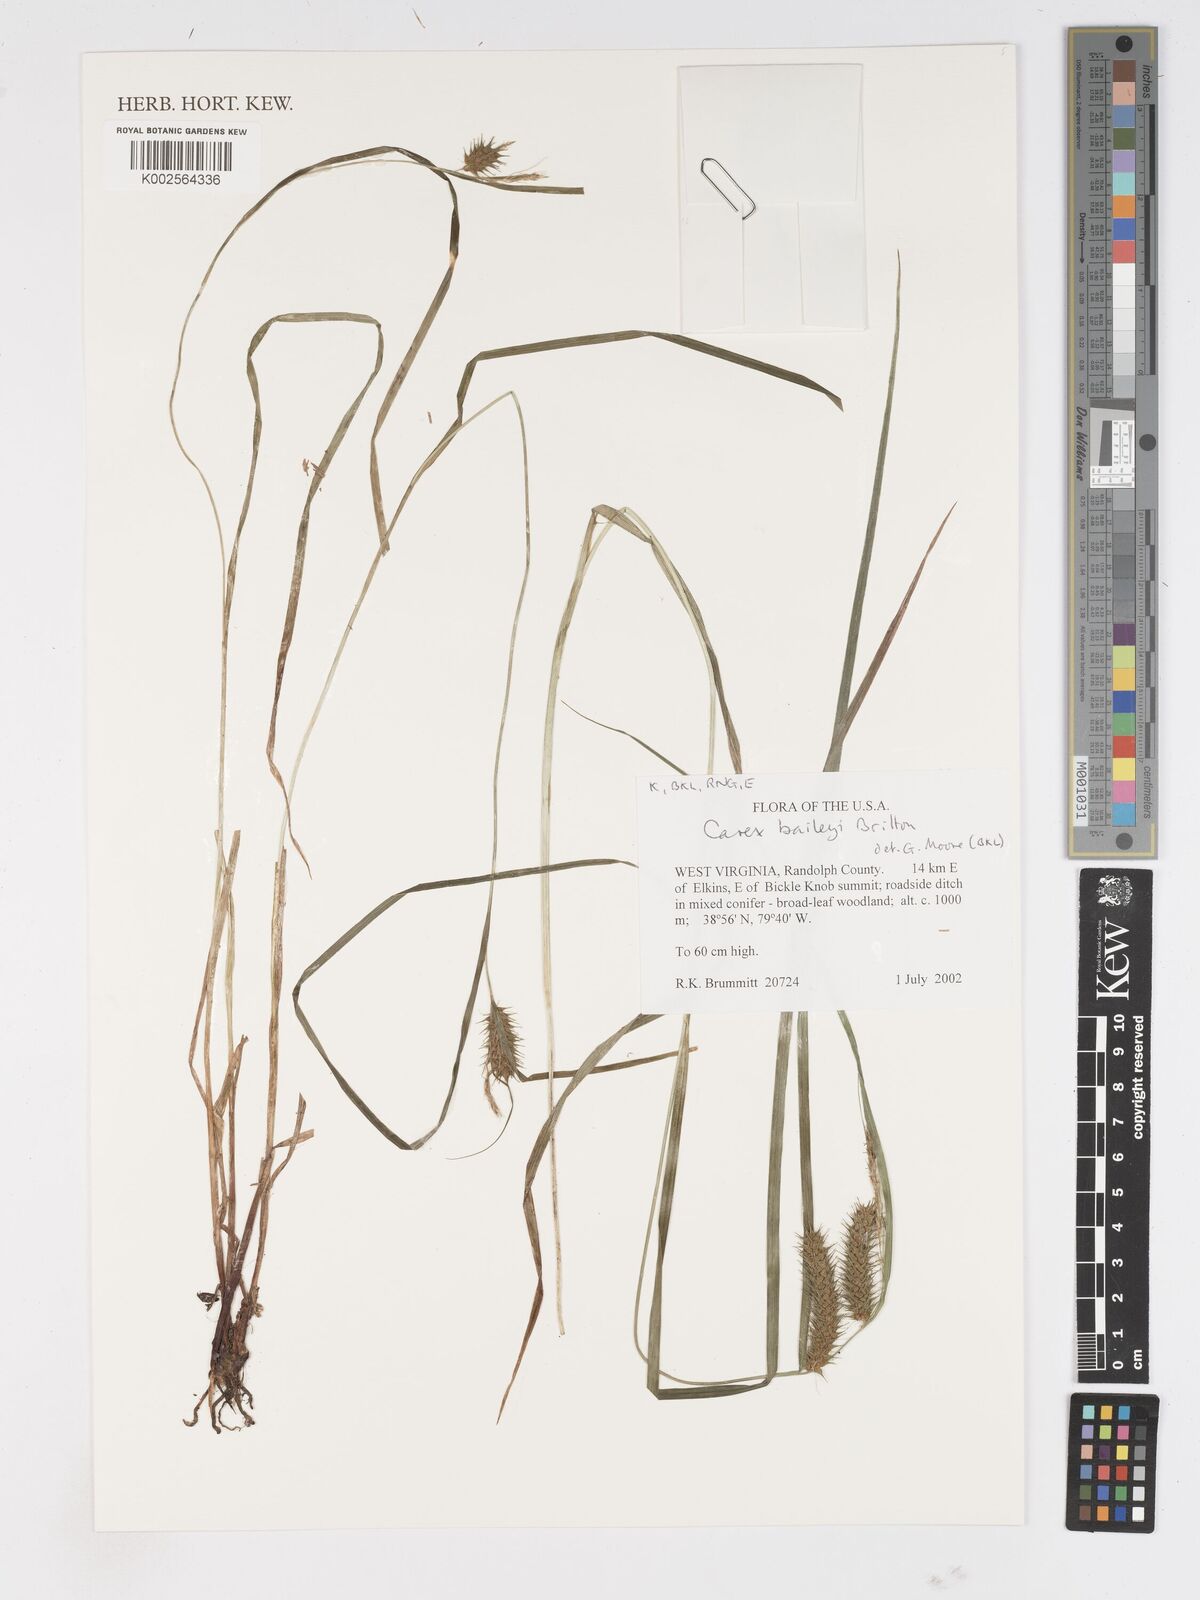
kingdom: Plantae
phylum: Tracheophyta
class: Liliopsida
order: Poales
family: Cyperaceae
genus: Carex
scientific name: Carex baileyi
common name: Bailey's sedge
